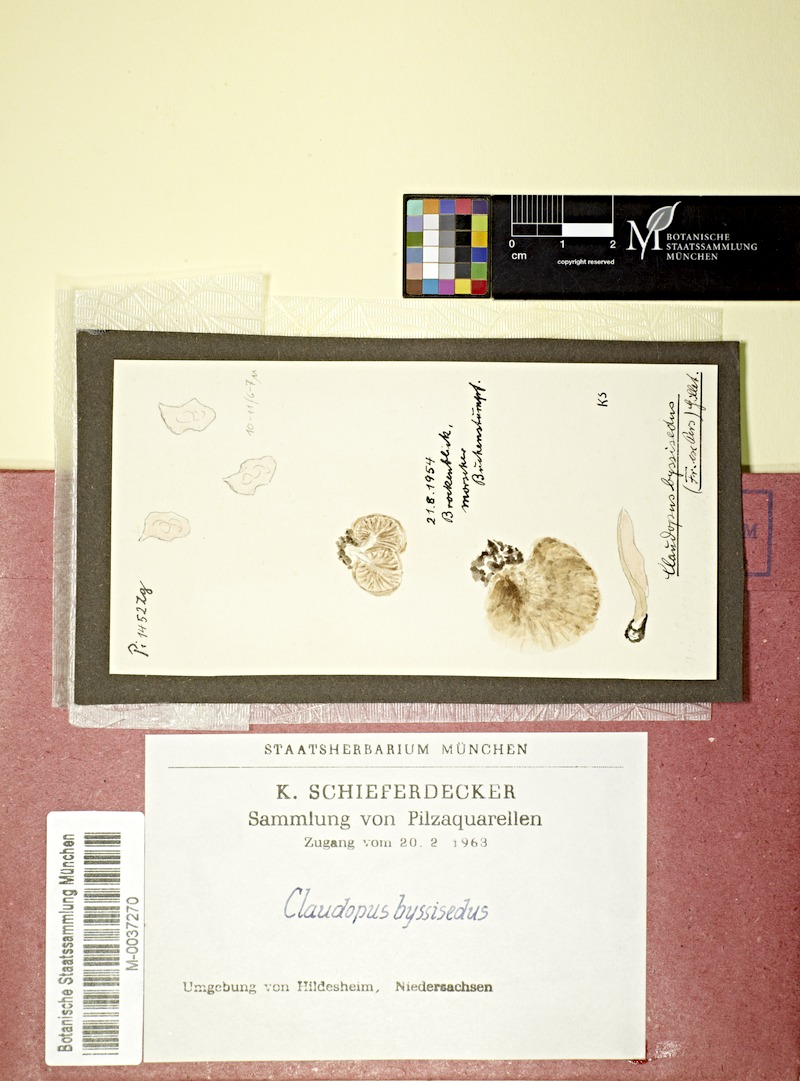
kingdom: Fungi
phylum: Basidiomycota
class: Agaricomycetes
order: Agaricales
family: Entolomataceae
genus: Entoloma
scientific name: Entoloma byssisedum
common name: Oysterling pinkgill
